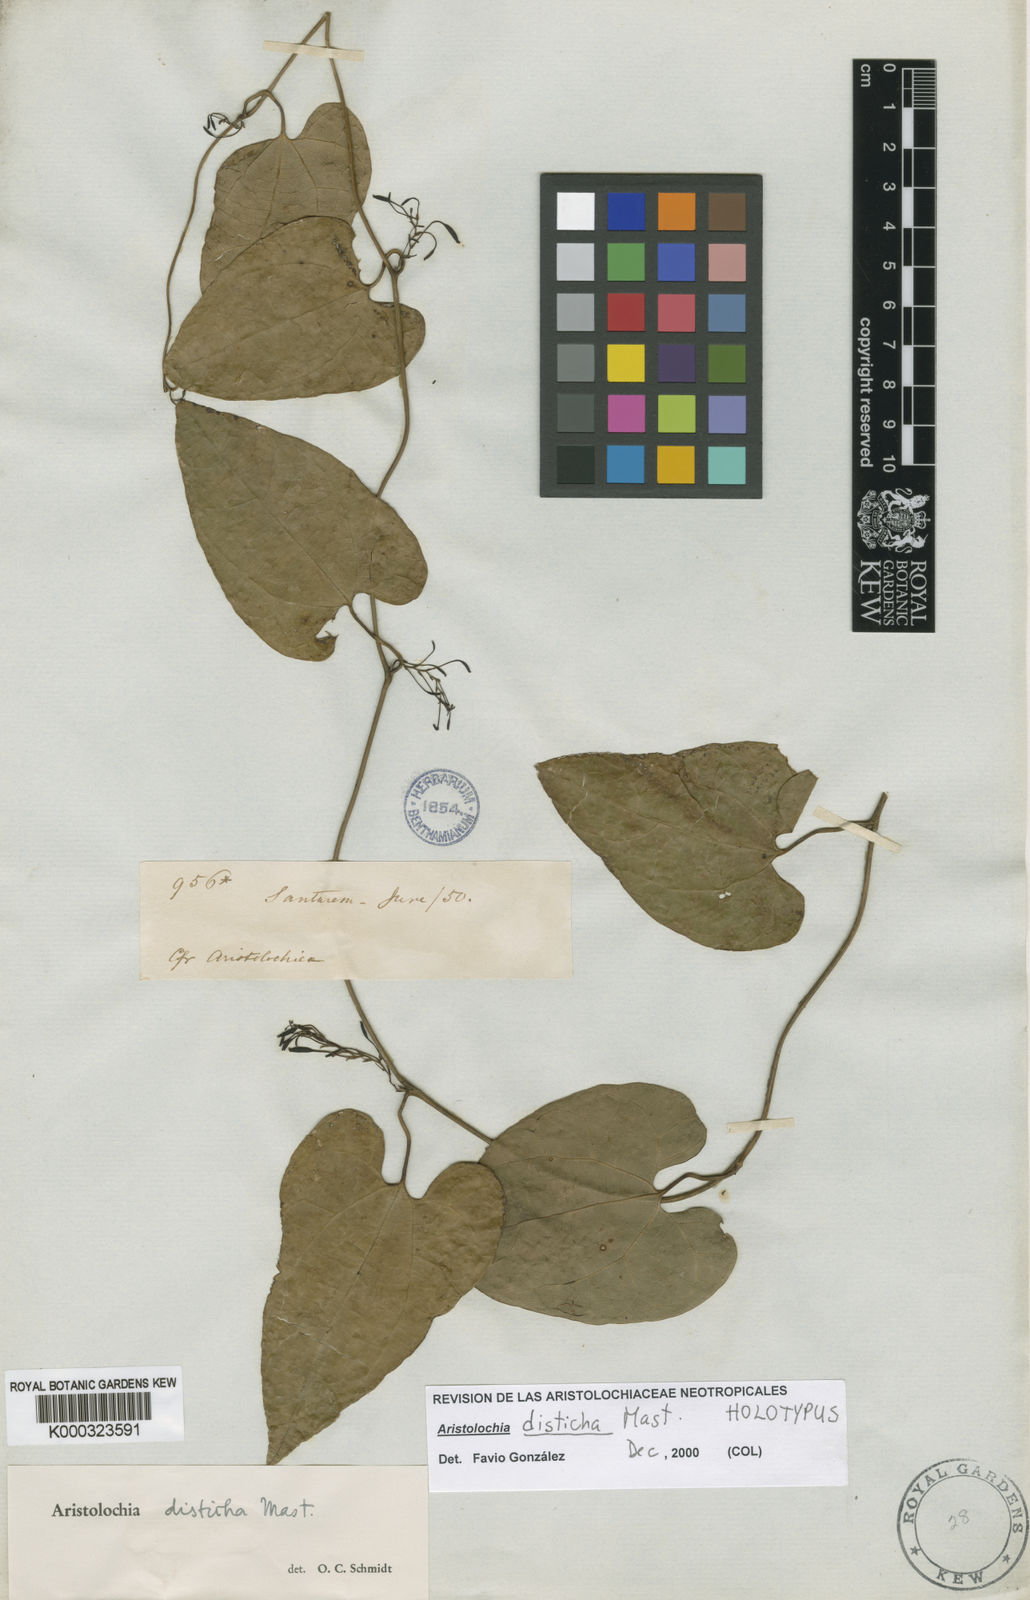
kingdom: Plantae
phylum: Tracheophyta
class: Magnoliopsida
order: Piperales
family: Aristolochiaceae
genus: Aristolochia
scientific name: Aristolochia
